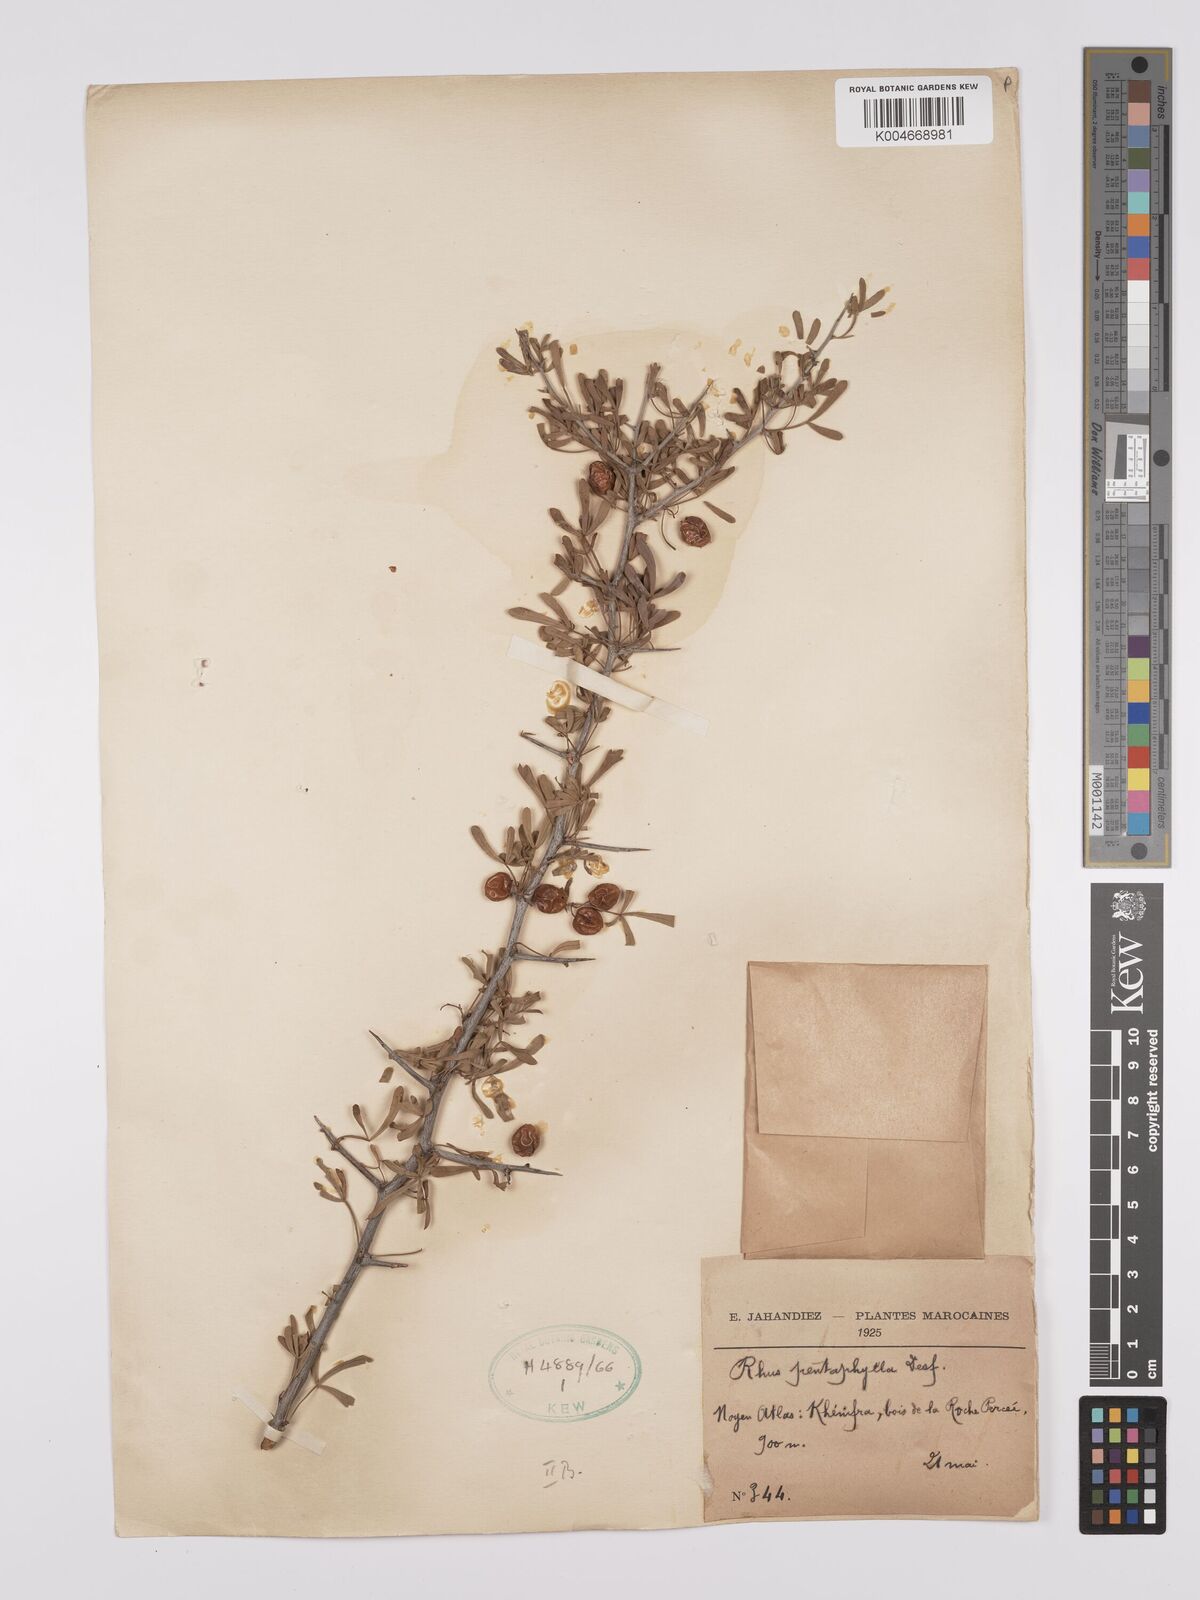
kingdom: Plantae
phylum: Tracheophyta
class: Magnoliopsida
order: Sapindales
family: Anacardiaceae
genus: Rhus
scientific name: Rhus
